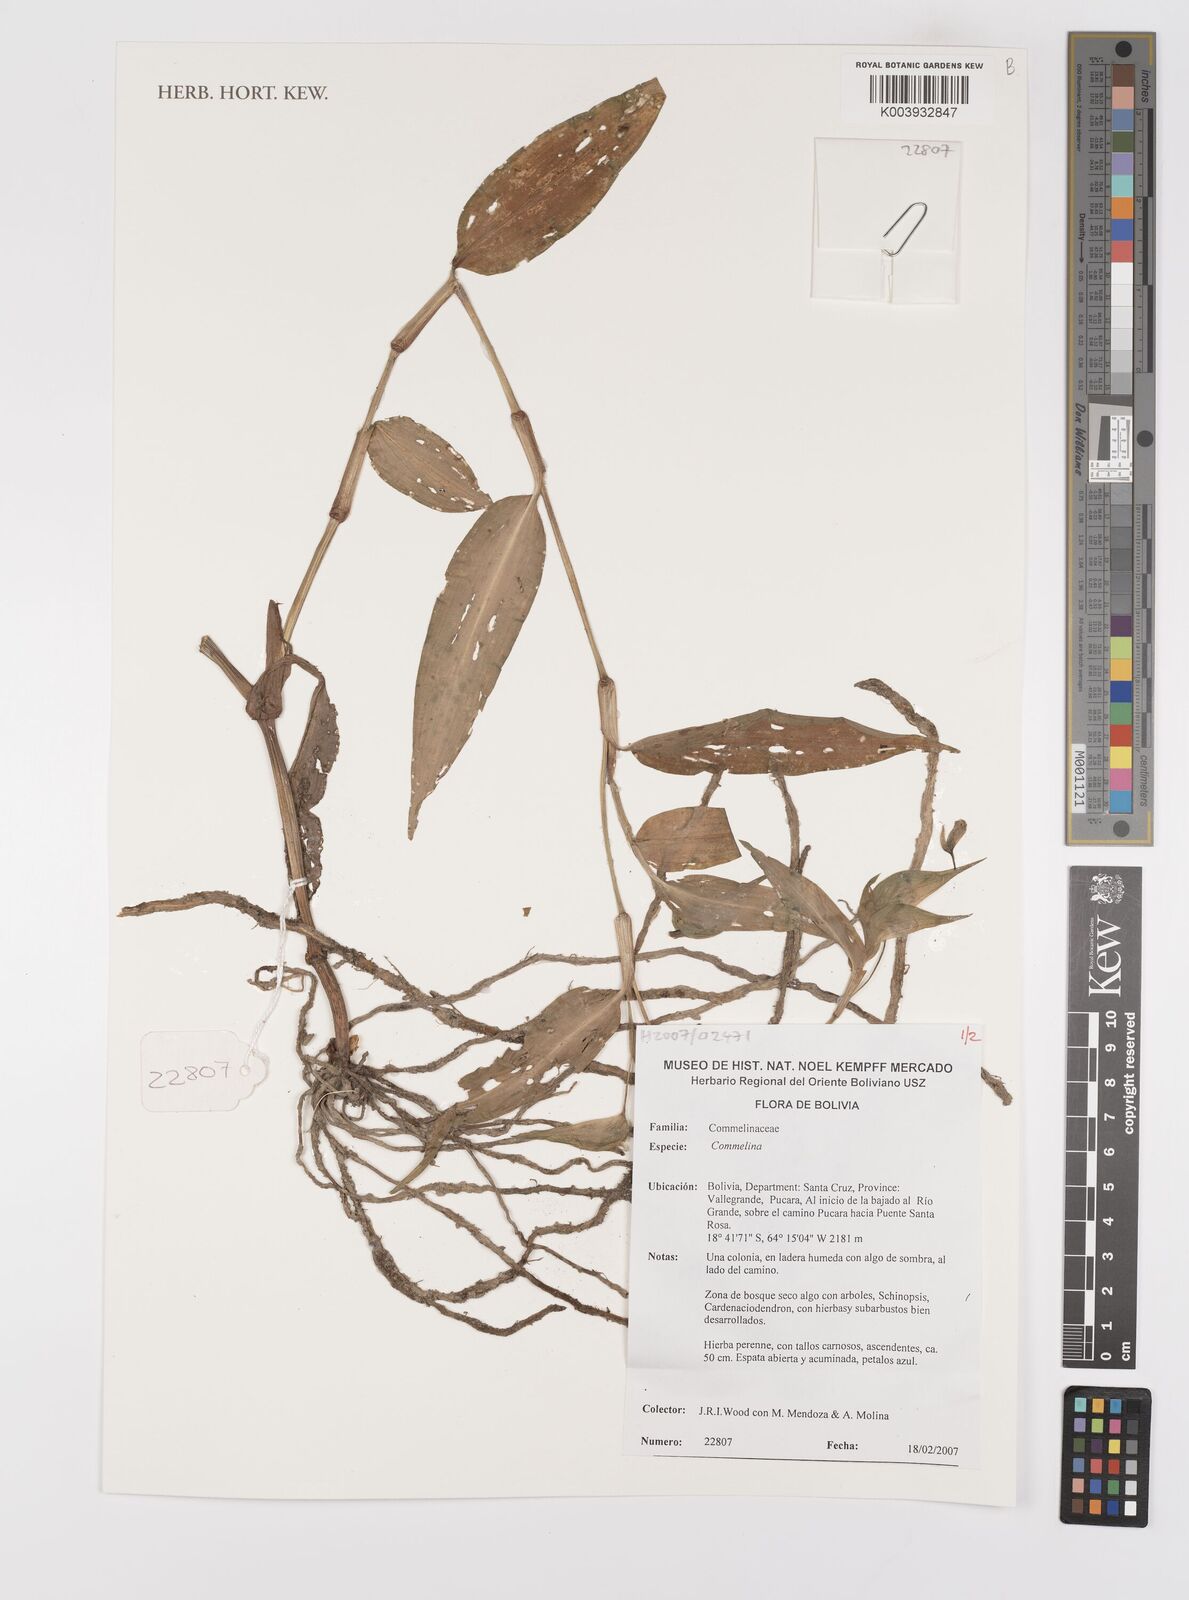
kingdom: Plantae
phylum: Tracheophyta
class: Liliopsida
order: Commelinales
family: Commelinaceae
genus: Commelina
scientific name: Commelina
